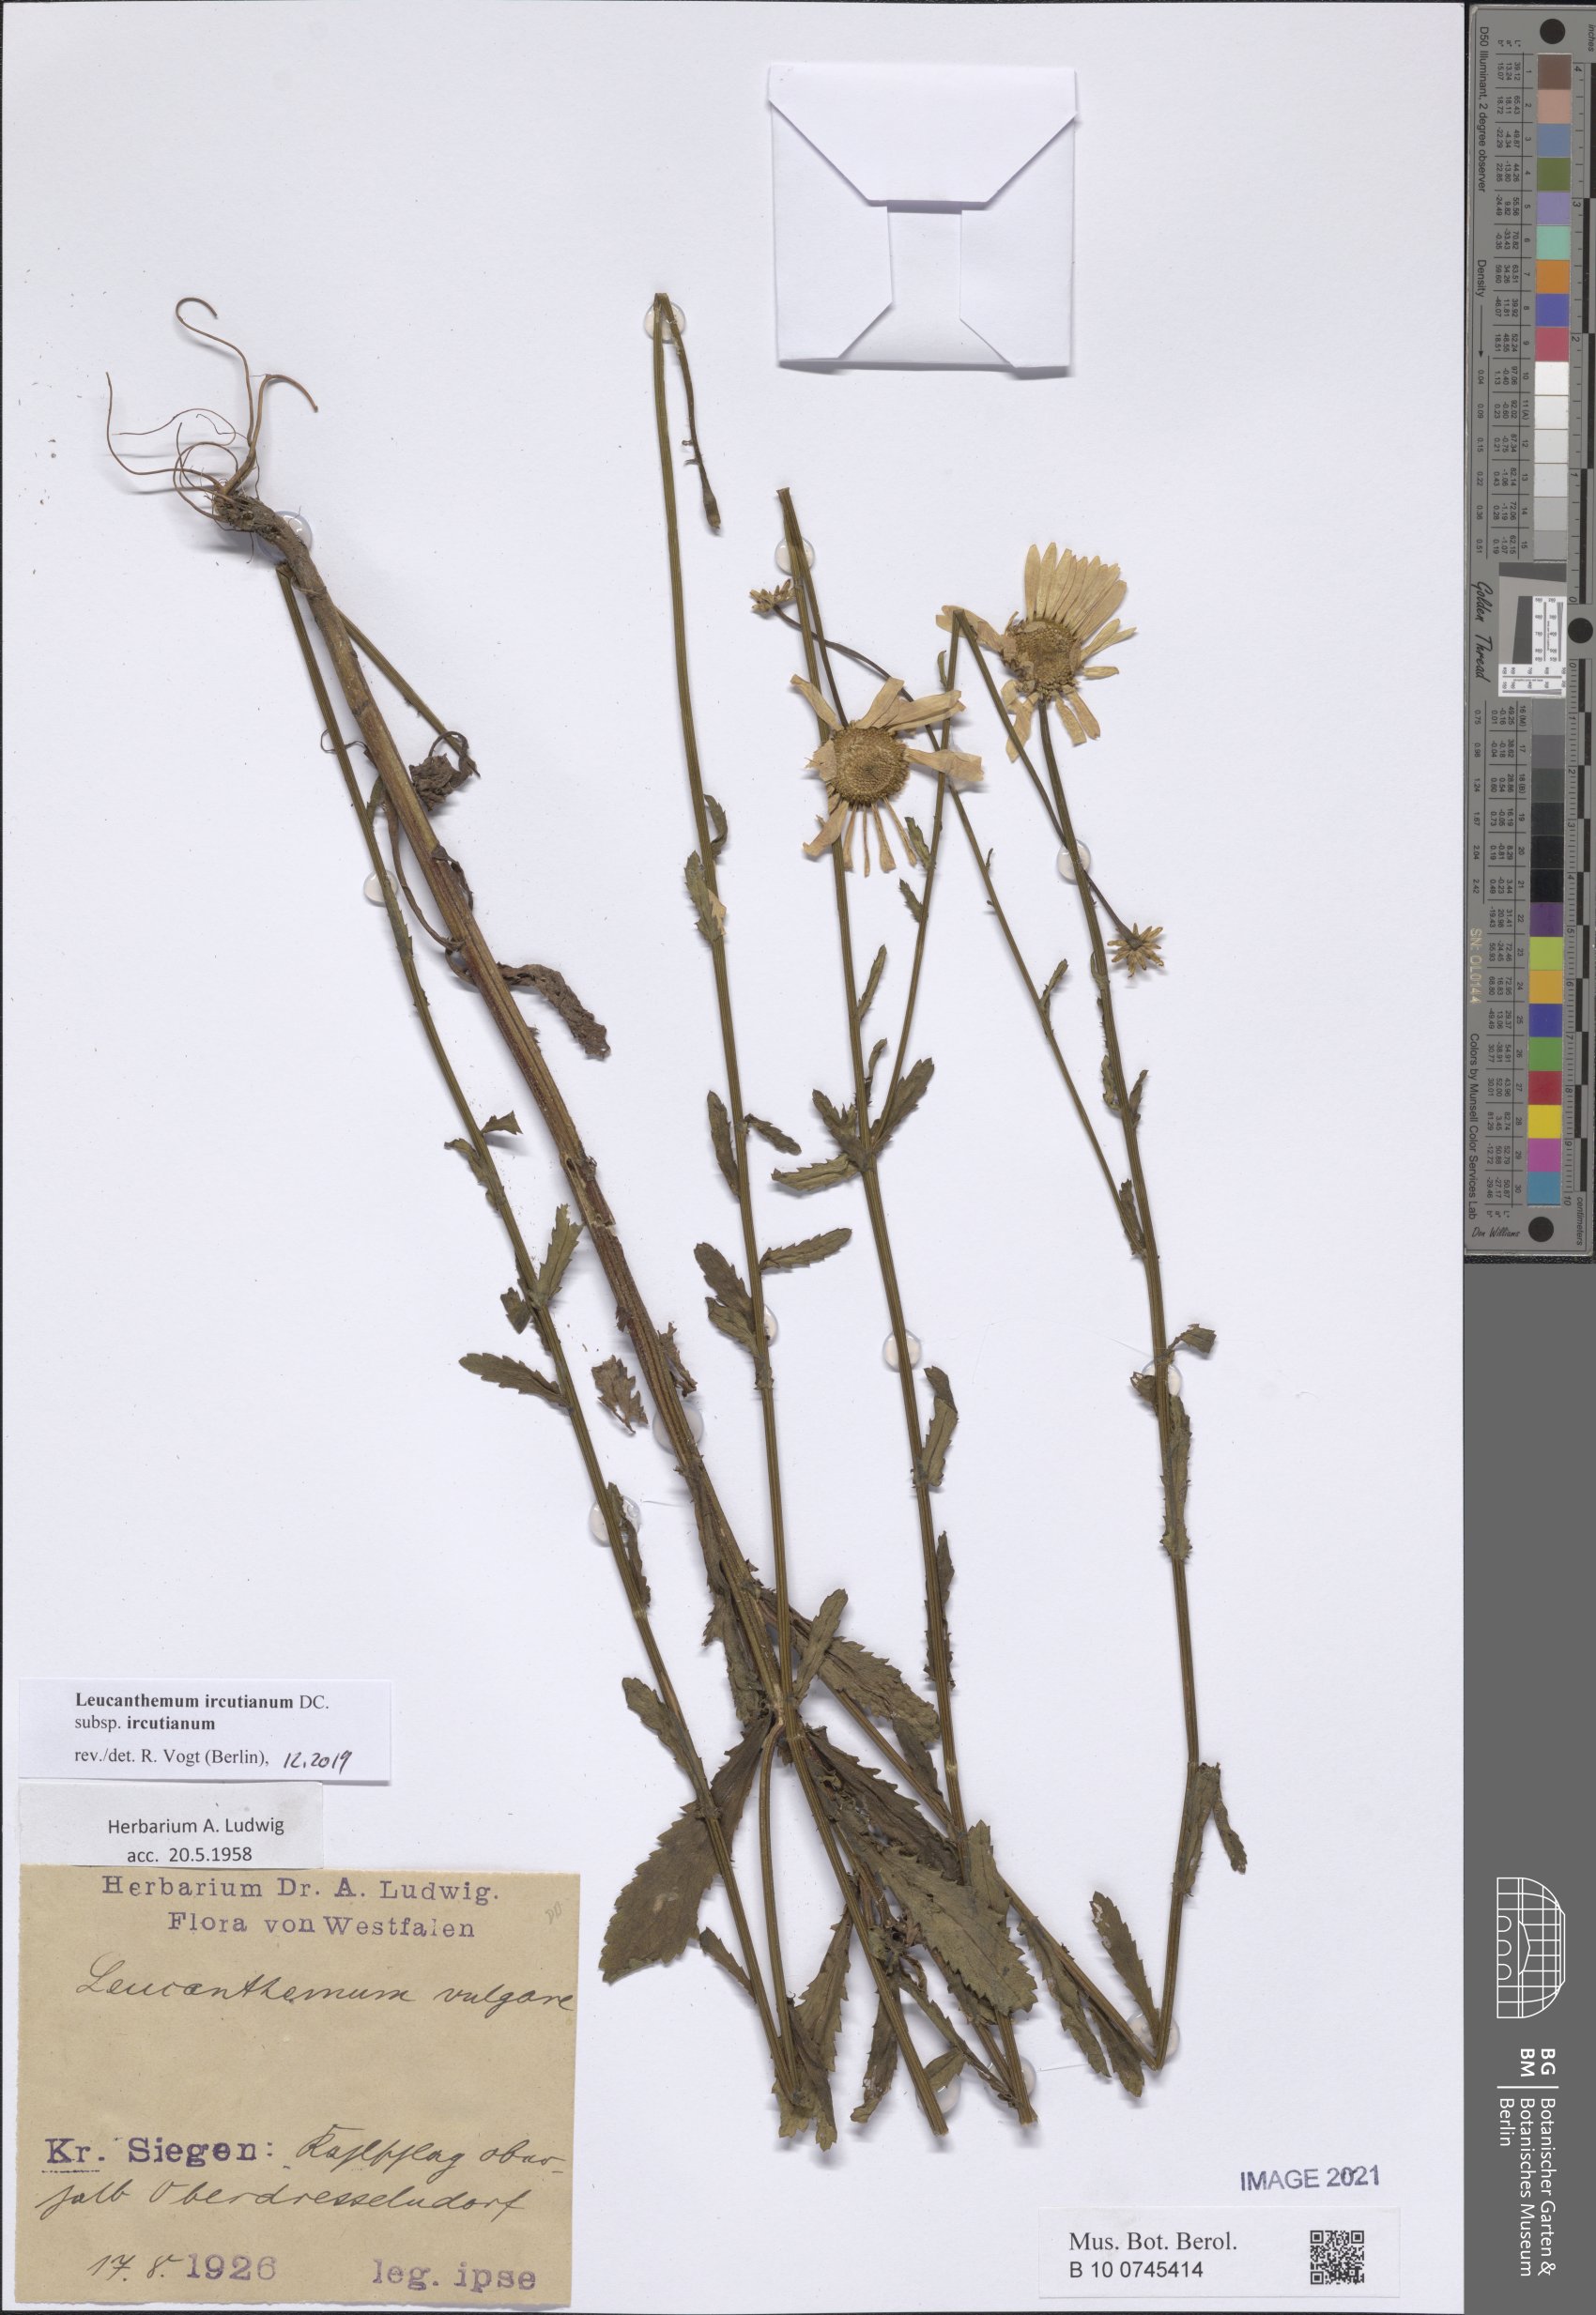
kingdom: Plantae
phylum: Tracheophyta
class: Magnoliopsida
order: Asterales
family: Asteraceae
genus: Leucanthemum
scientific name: Leucanthemum ircutianum
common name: Daisy
